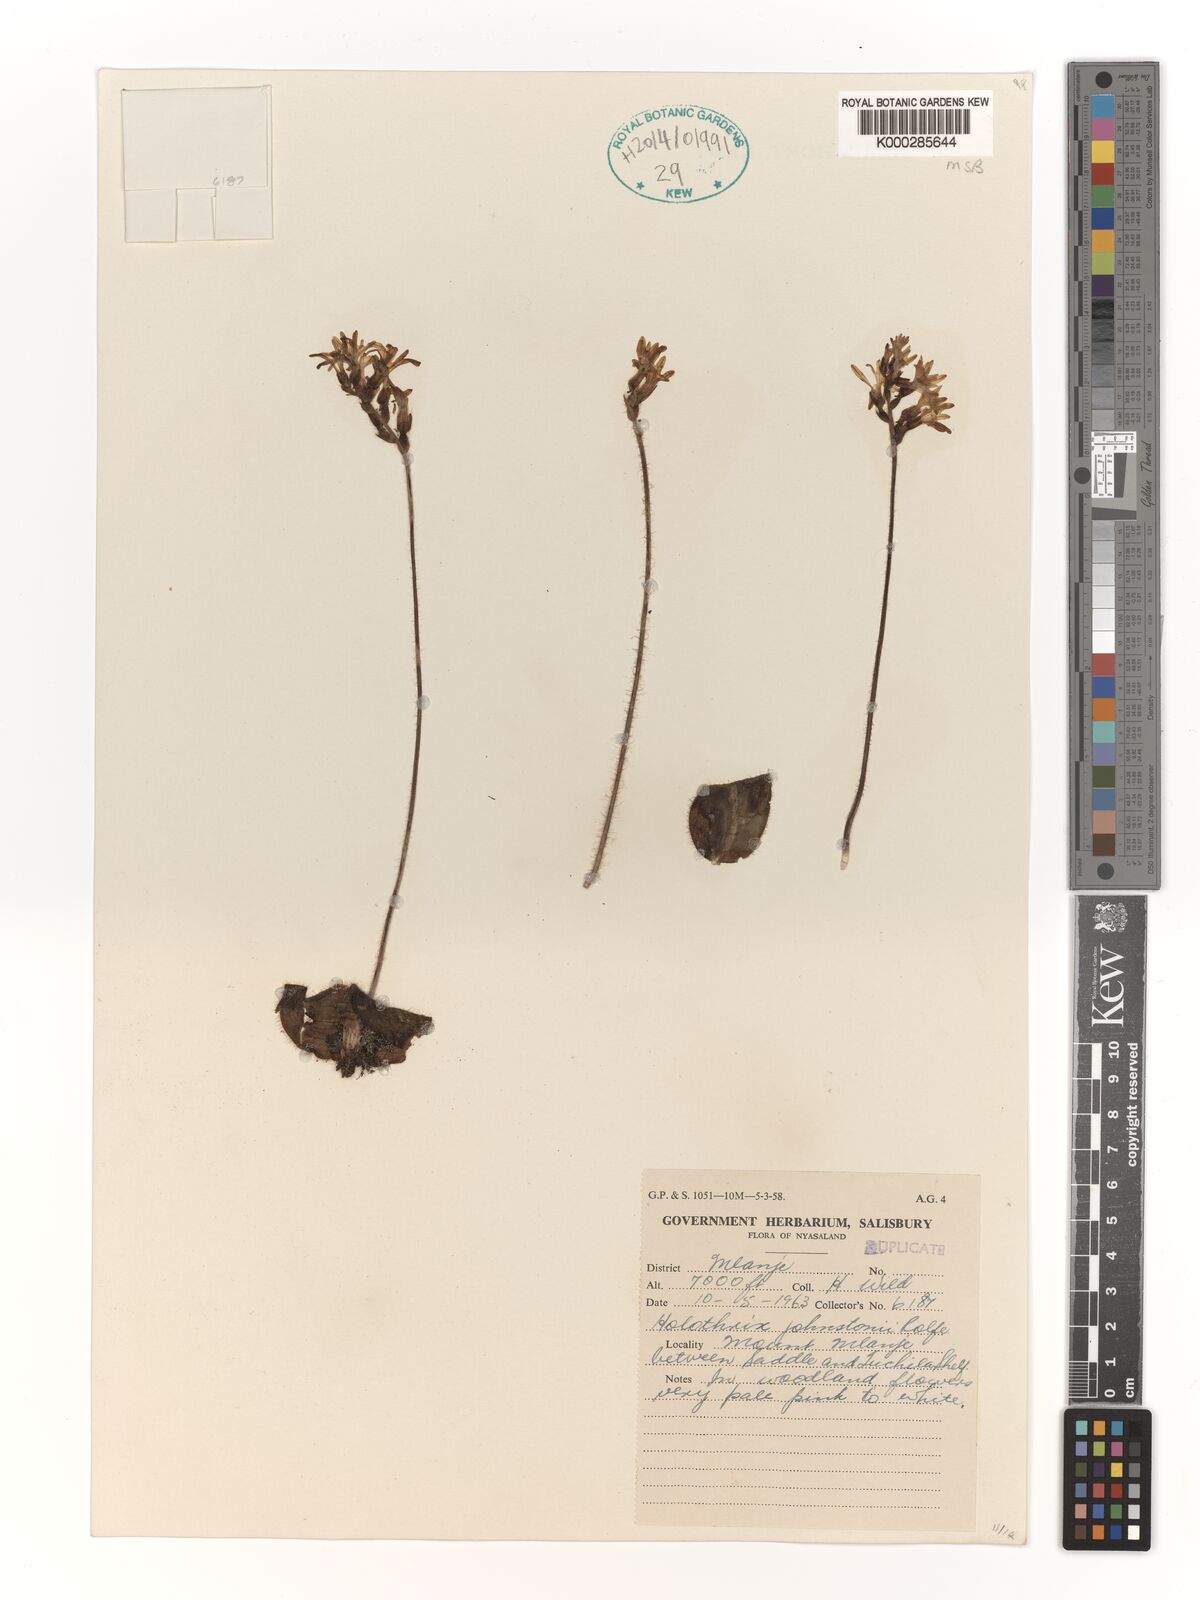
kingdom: Plantae
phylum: Tracheophyta
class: Liliopsida
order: Asparagales
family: Orchidaceae
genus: Holothrix
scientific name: Holothrix johnstonii
